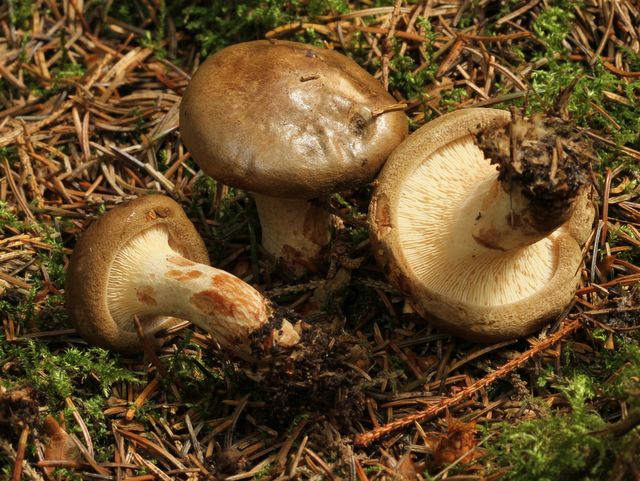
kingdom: Fungi
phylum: Basidiomycota
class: Agaricomycetes
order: Boletales
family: Paxillaceae
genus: Paxillus
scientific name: Paxillus involutus
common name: almindelig netbladhat
